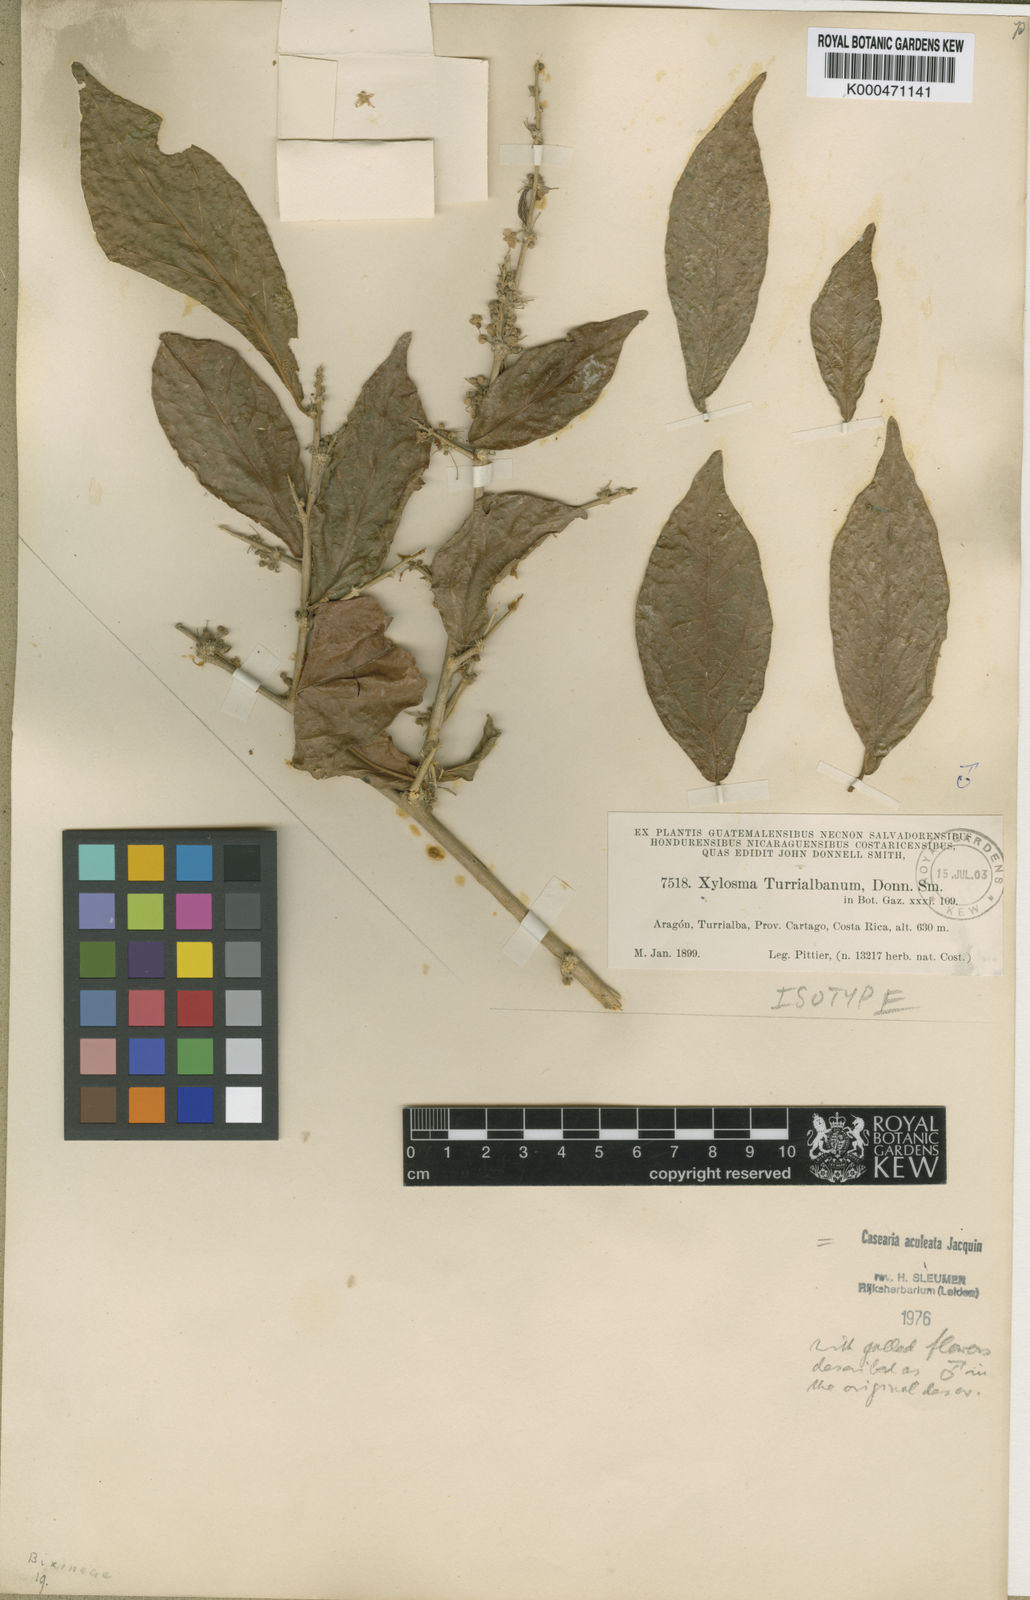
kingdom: Plantae
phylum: Tracheophyta
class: Magnoliopsida
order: Malpighiales
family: Salicaceae
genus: Casearia
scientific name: Casearia aculeata
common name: Cockspur
